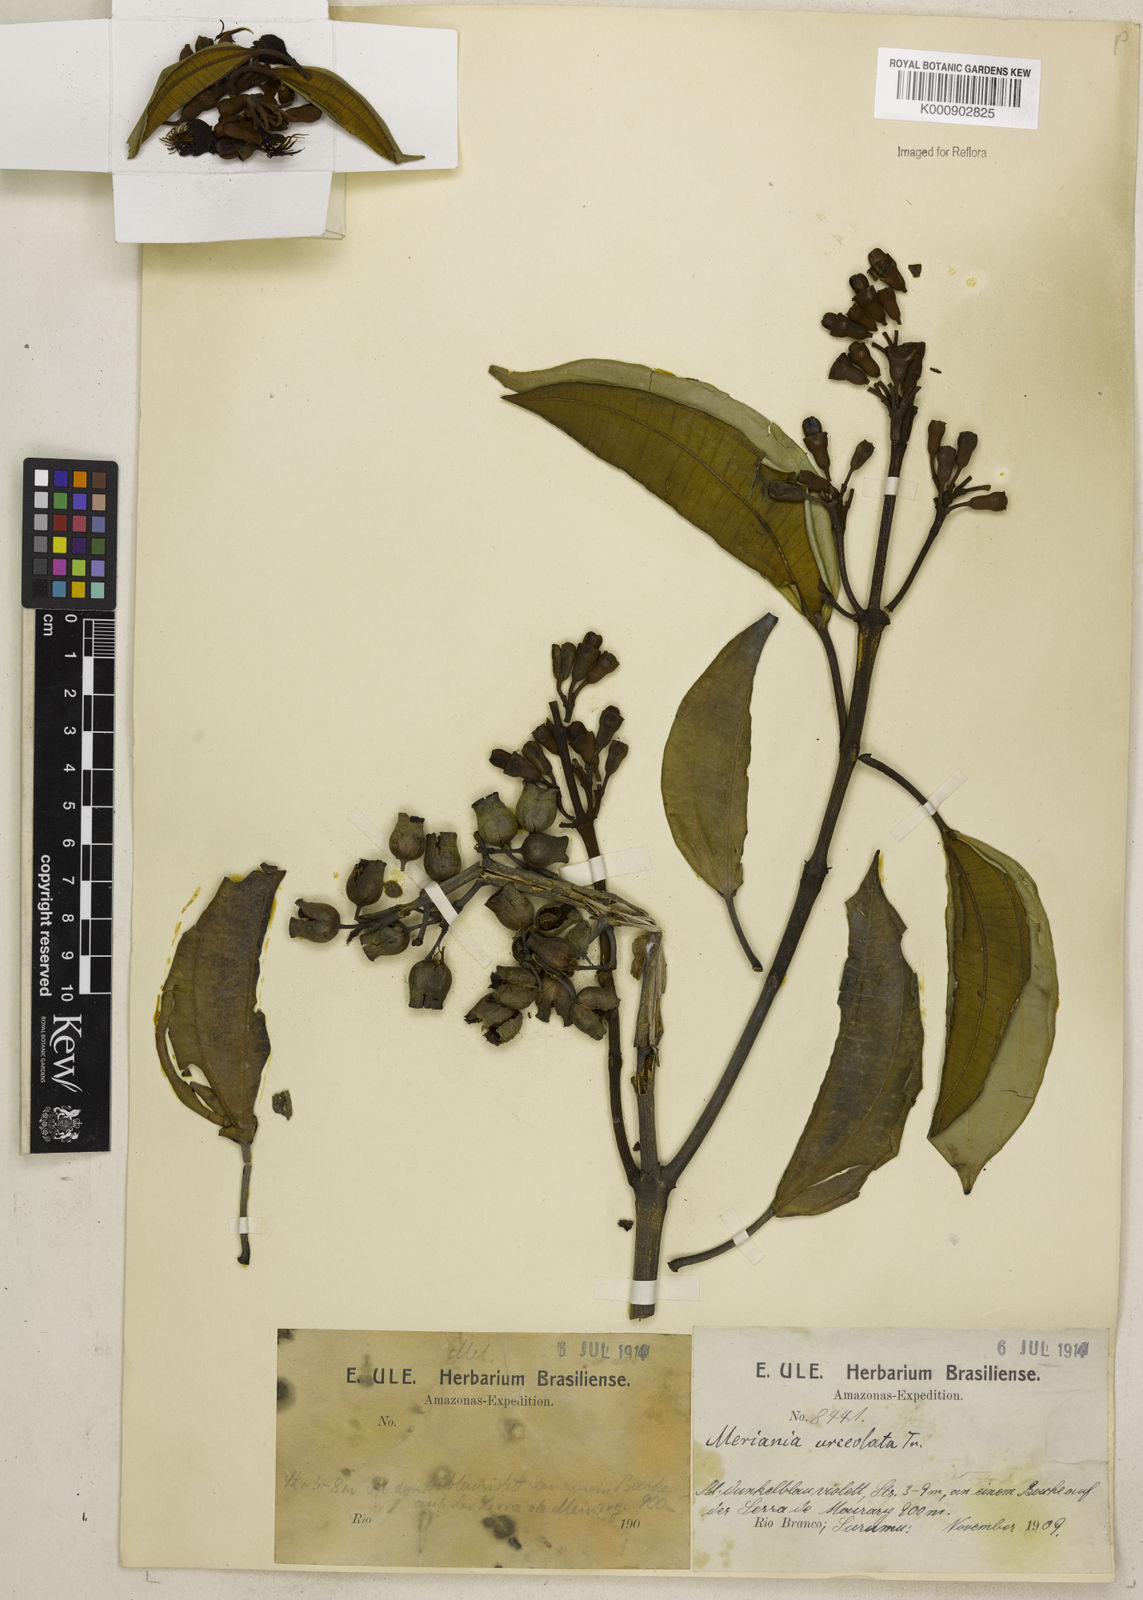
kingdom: Plantae
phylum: Tracheophyta
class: Magnoliopsida
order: Myrtales
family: Melastomataceae
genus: Meriania
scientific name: Meriania urceolata
